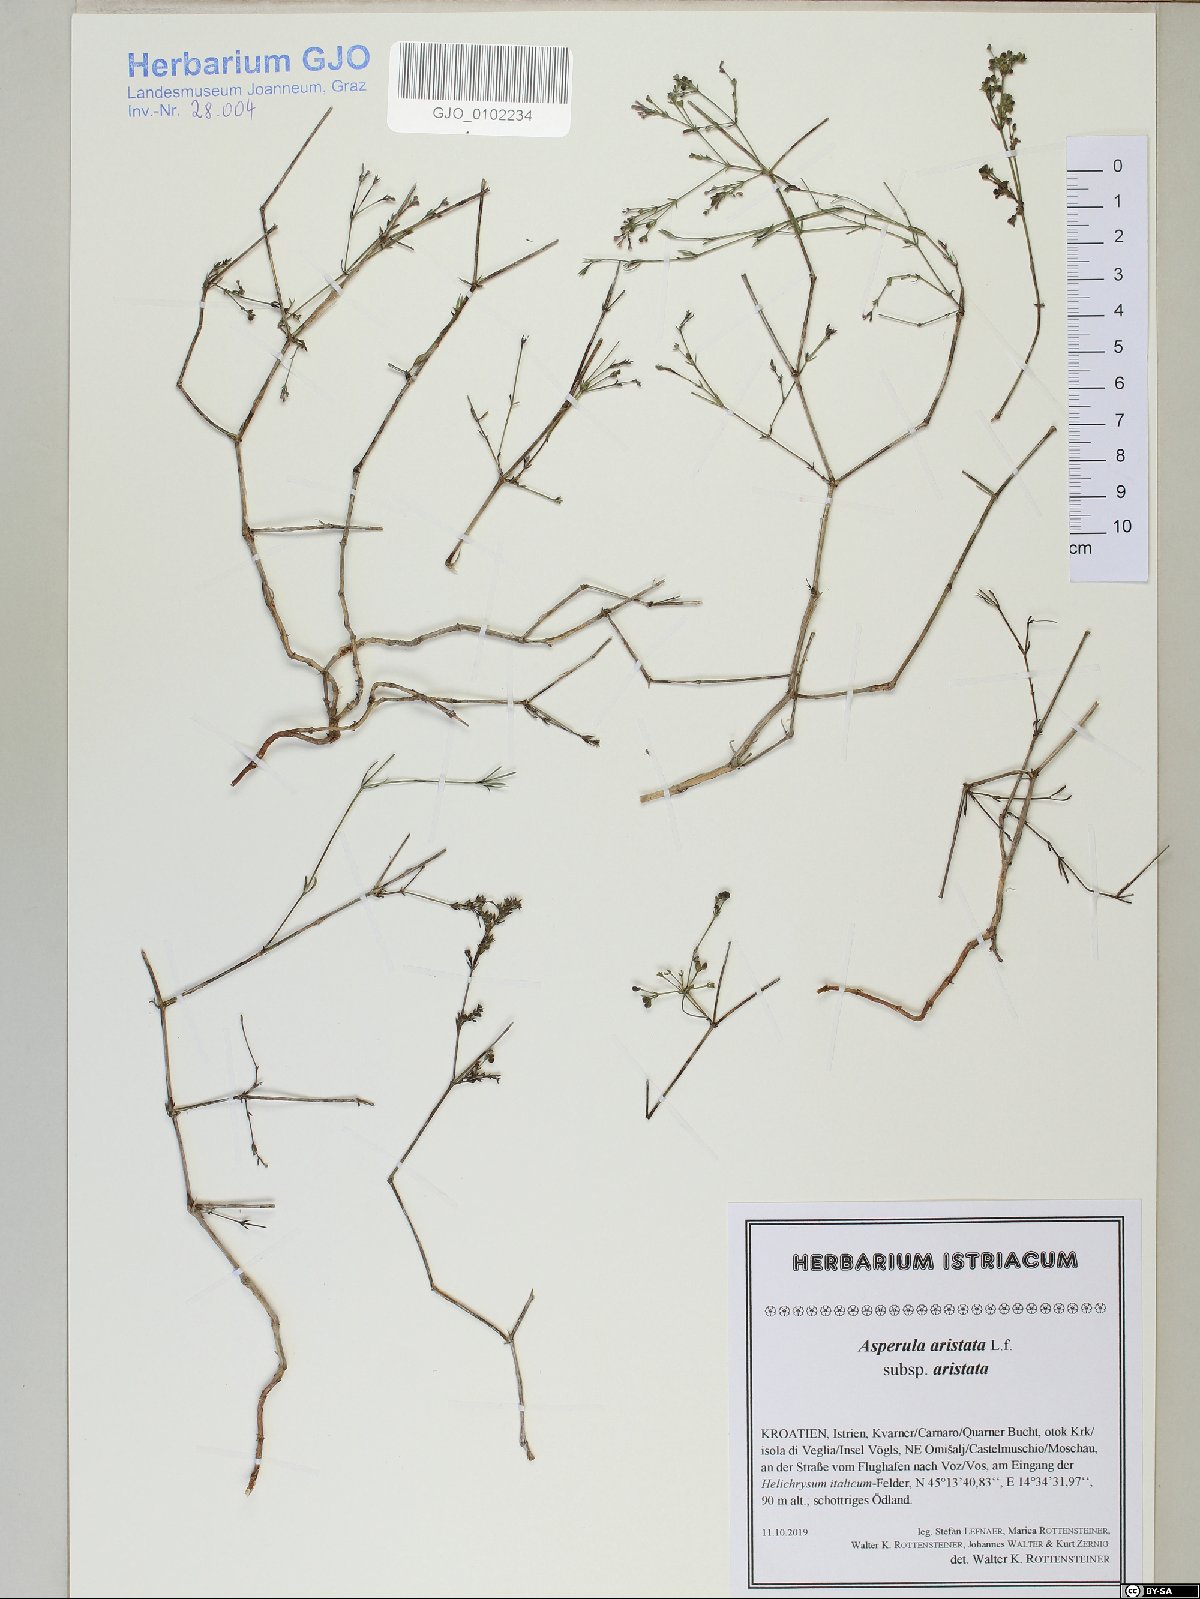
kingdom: Plantae
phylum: Tracheophyta
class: Magnoliopsida
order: Gentianales
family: Rubiaceae
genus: Cynanchica
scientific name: Cynanchica aristata
